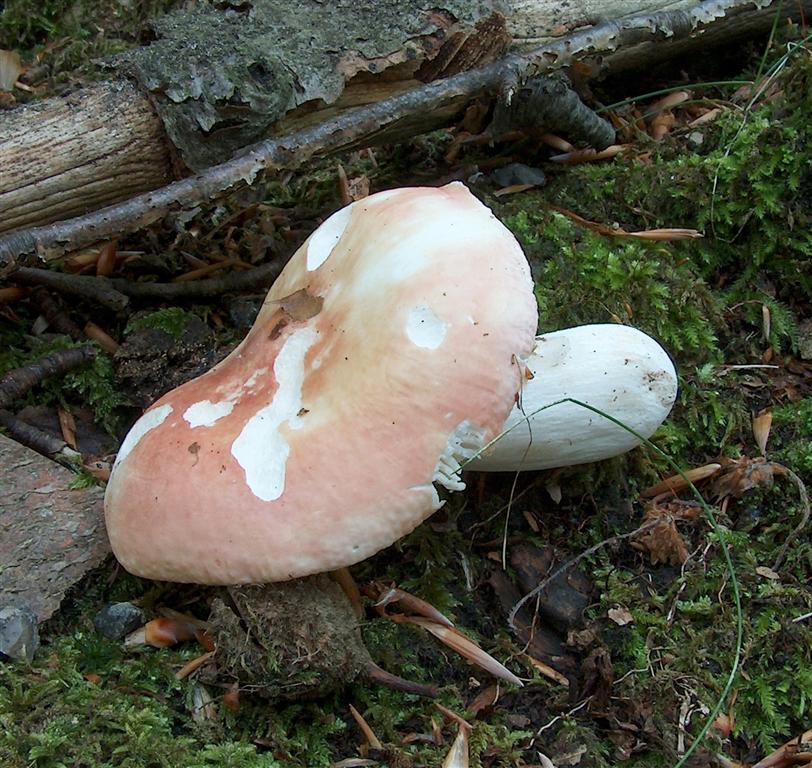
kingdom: Fungi
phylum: Basidiomycota
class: Agaricomycetes
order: Russulales
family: Russulaceae
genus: Russula
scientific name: Russula aurora
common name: rosa skørhat
